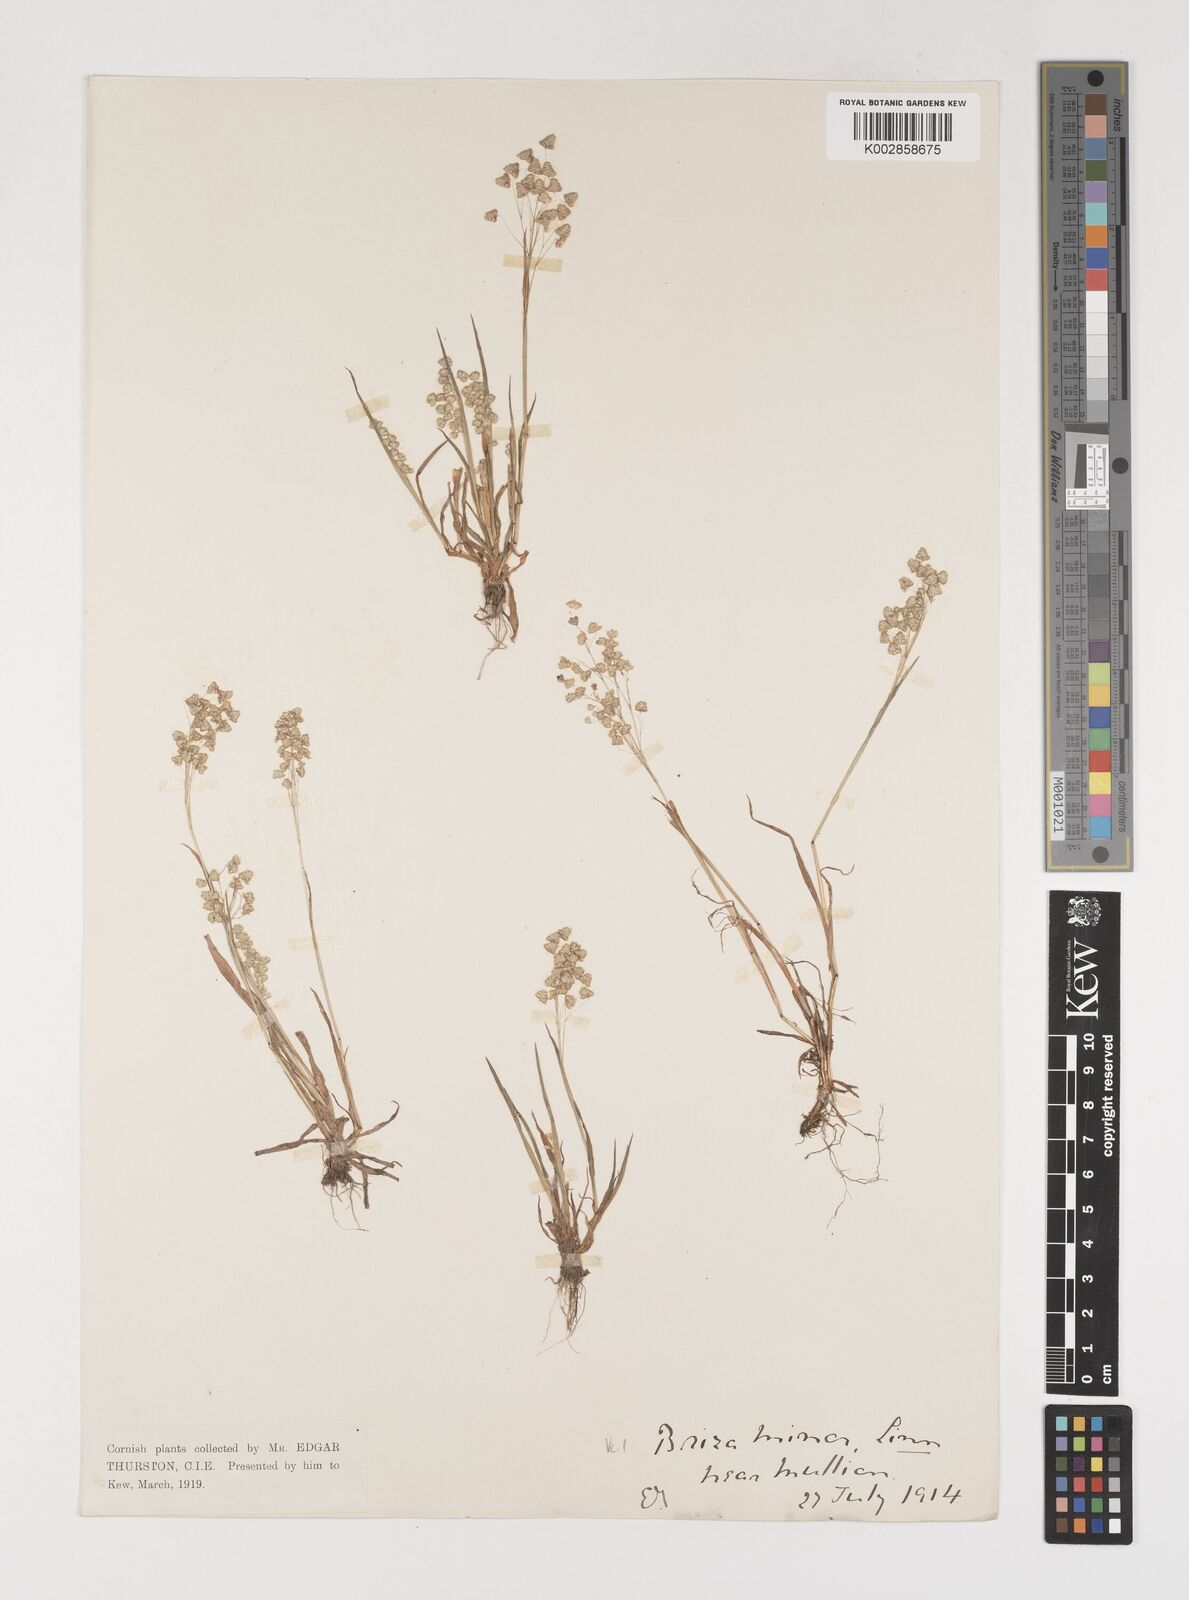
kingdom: Plantae
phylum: Tracheophyta
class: Liliopsida
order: Poales
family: Poaceae
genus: Briza
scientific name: Briza minor
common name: Lesser quaking-grass
